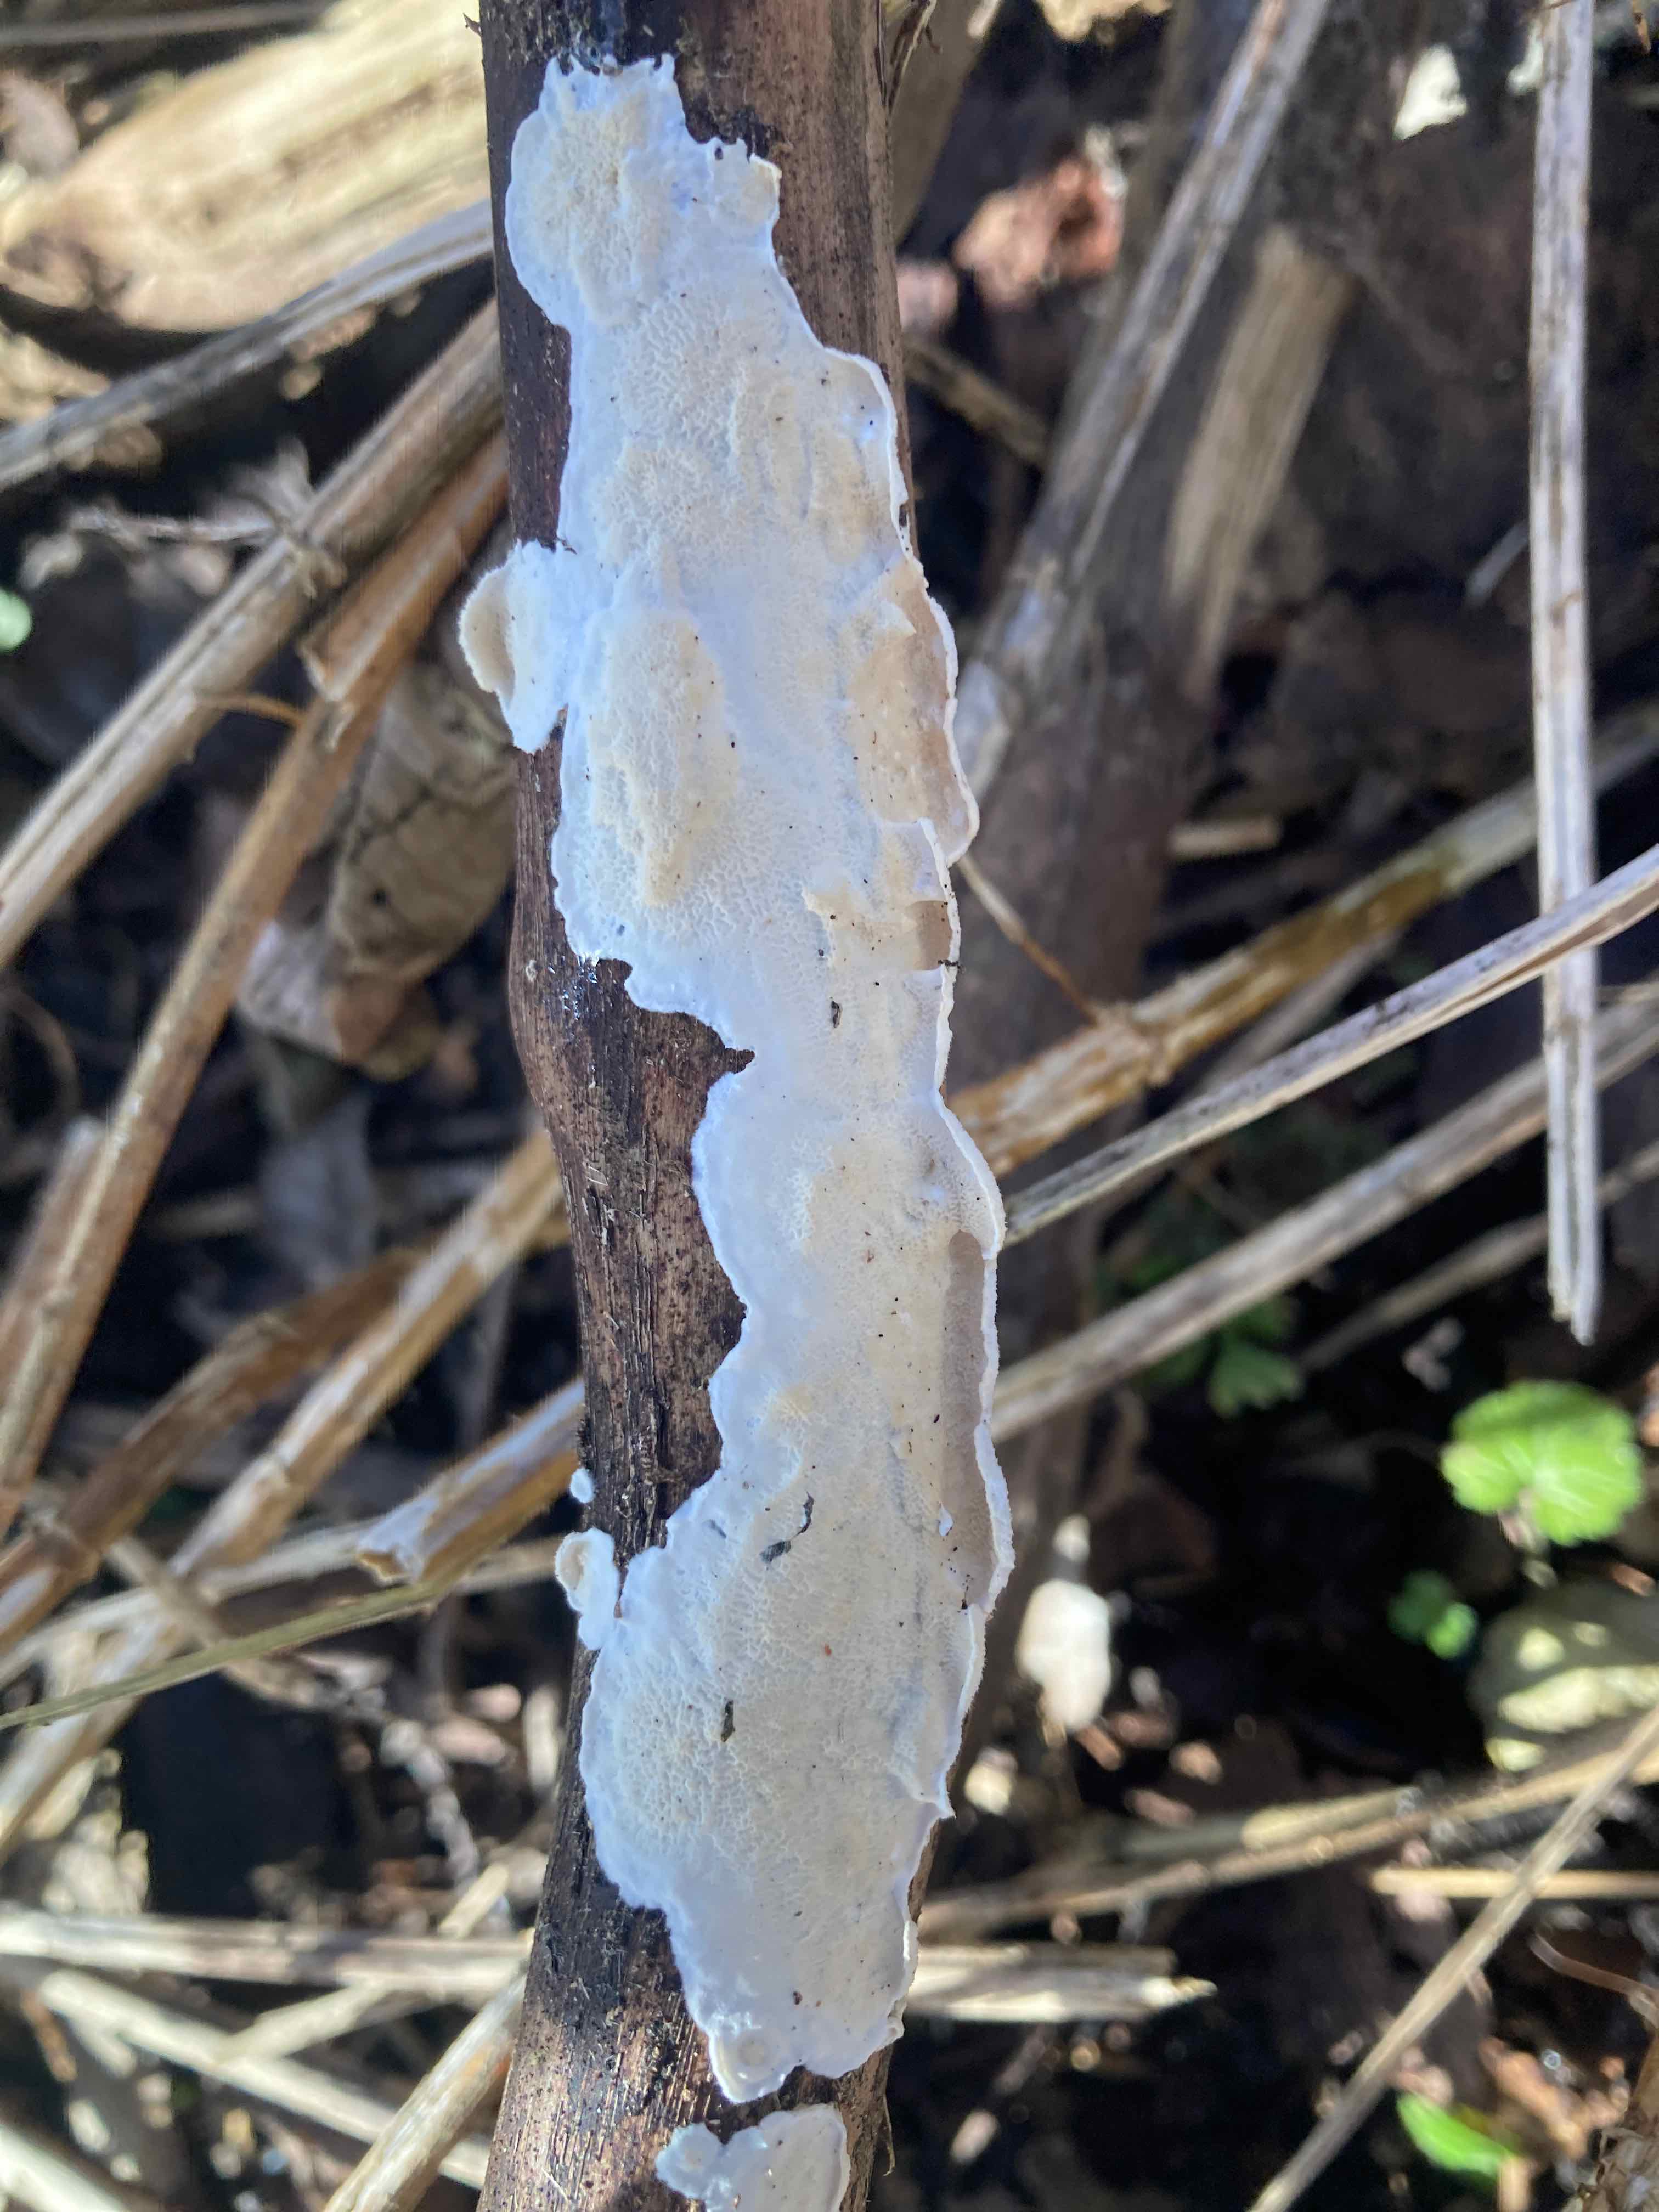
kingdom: Fungi
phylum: Basidiomycota
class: Agaricomycetes
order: Polyporales
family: Irpicaceae
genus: Byssomerulius
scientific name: Byssomerulius corium
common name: læder-åresvamp
